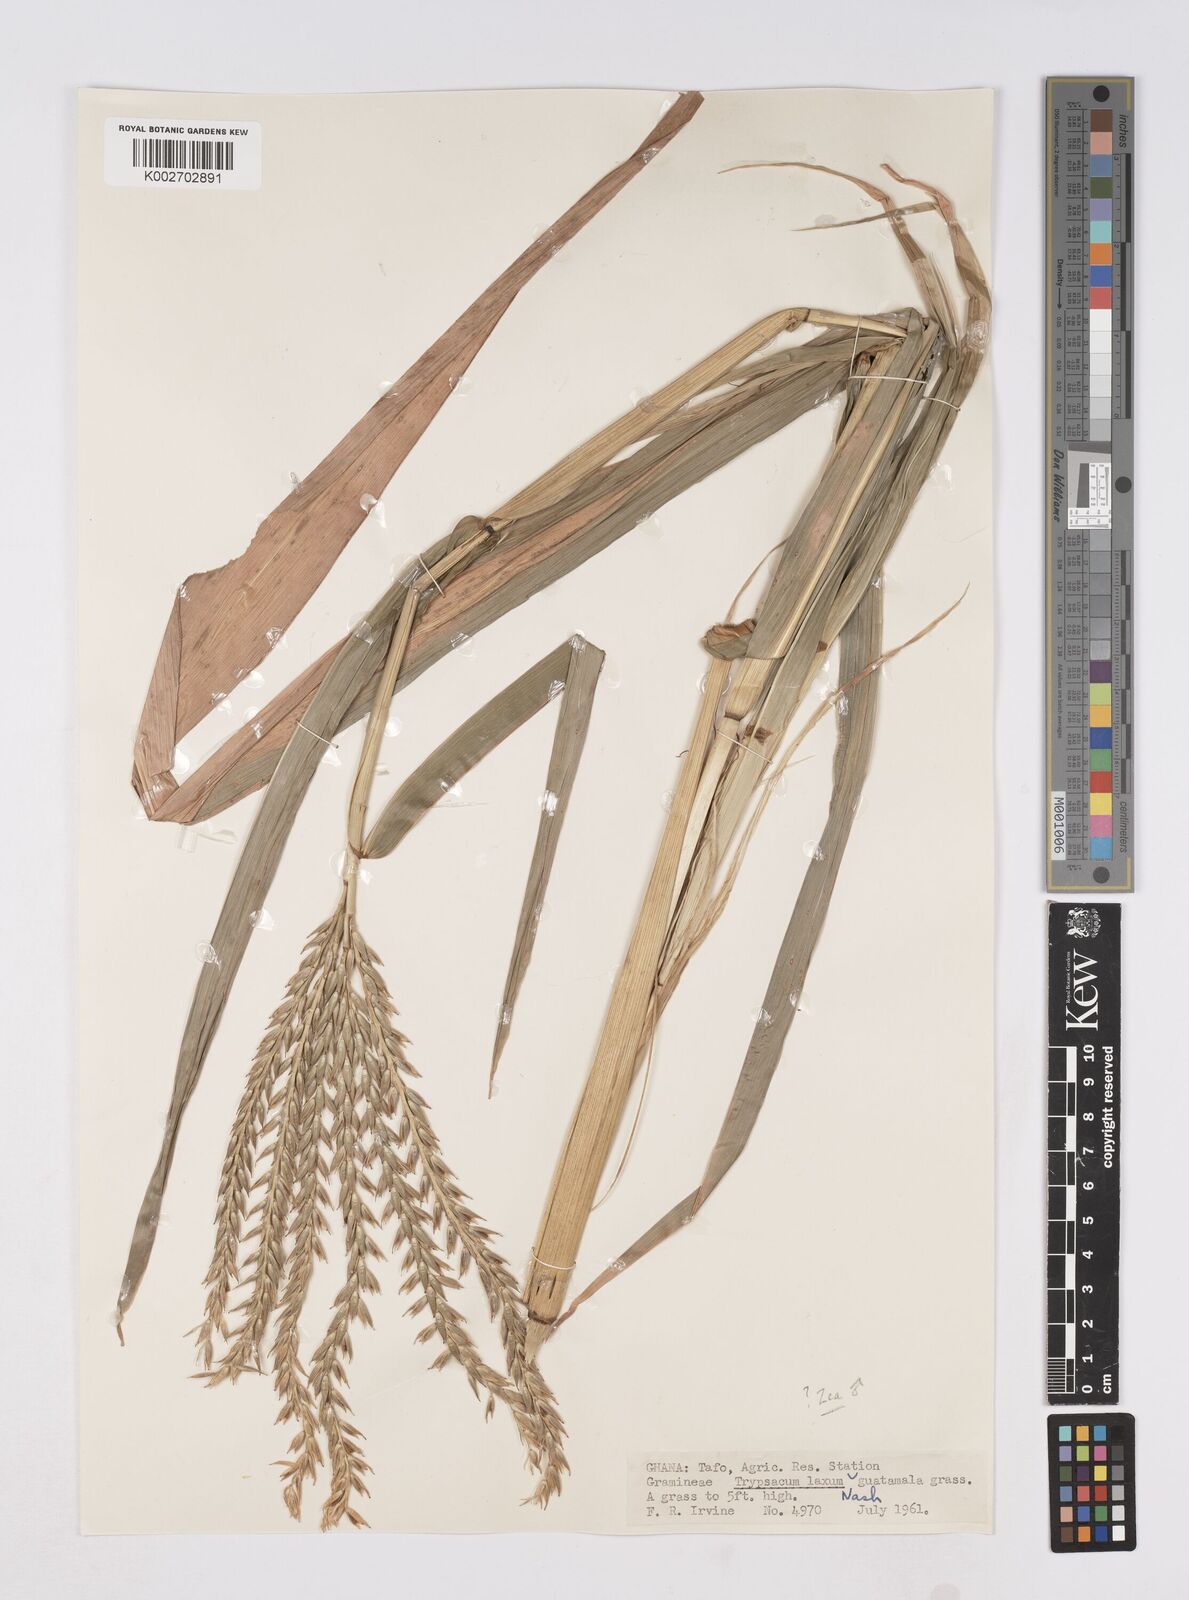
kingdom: Plantae
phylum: Tracheophyta
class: Liliopsida
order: Poales
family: Poaceae
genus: Zea
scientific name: Zea mays
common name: Maize
